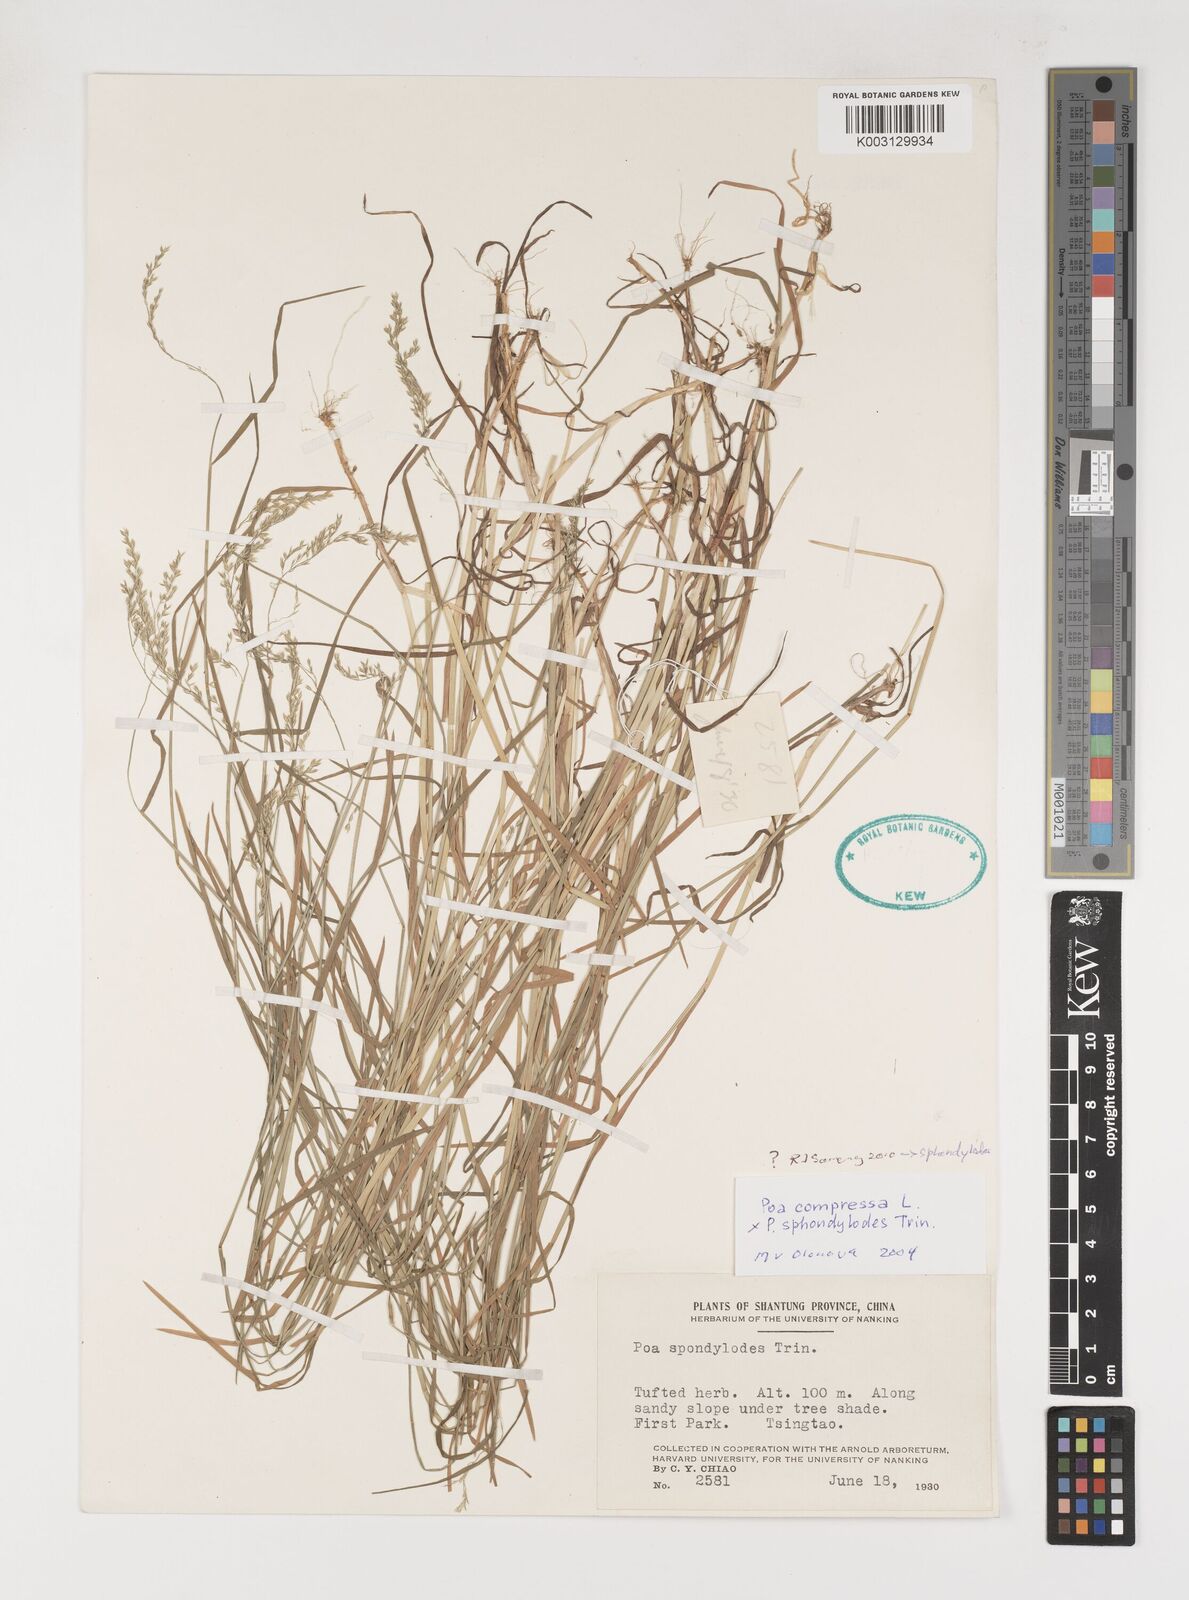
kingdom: Plantae
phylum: Tracheophyta
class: Liliopsida
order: Poales
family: Poaceae
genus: Poa
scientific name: Poa sphondylodes
